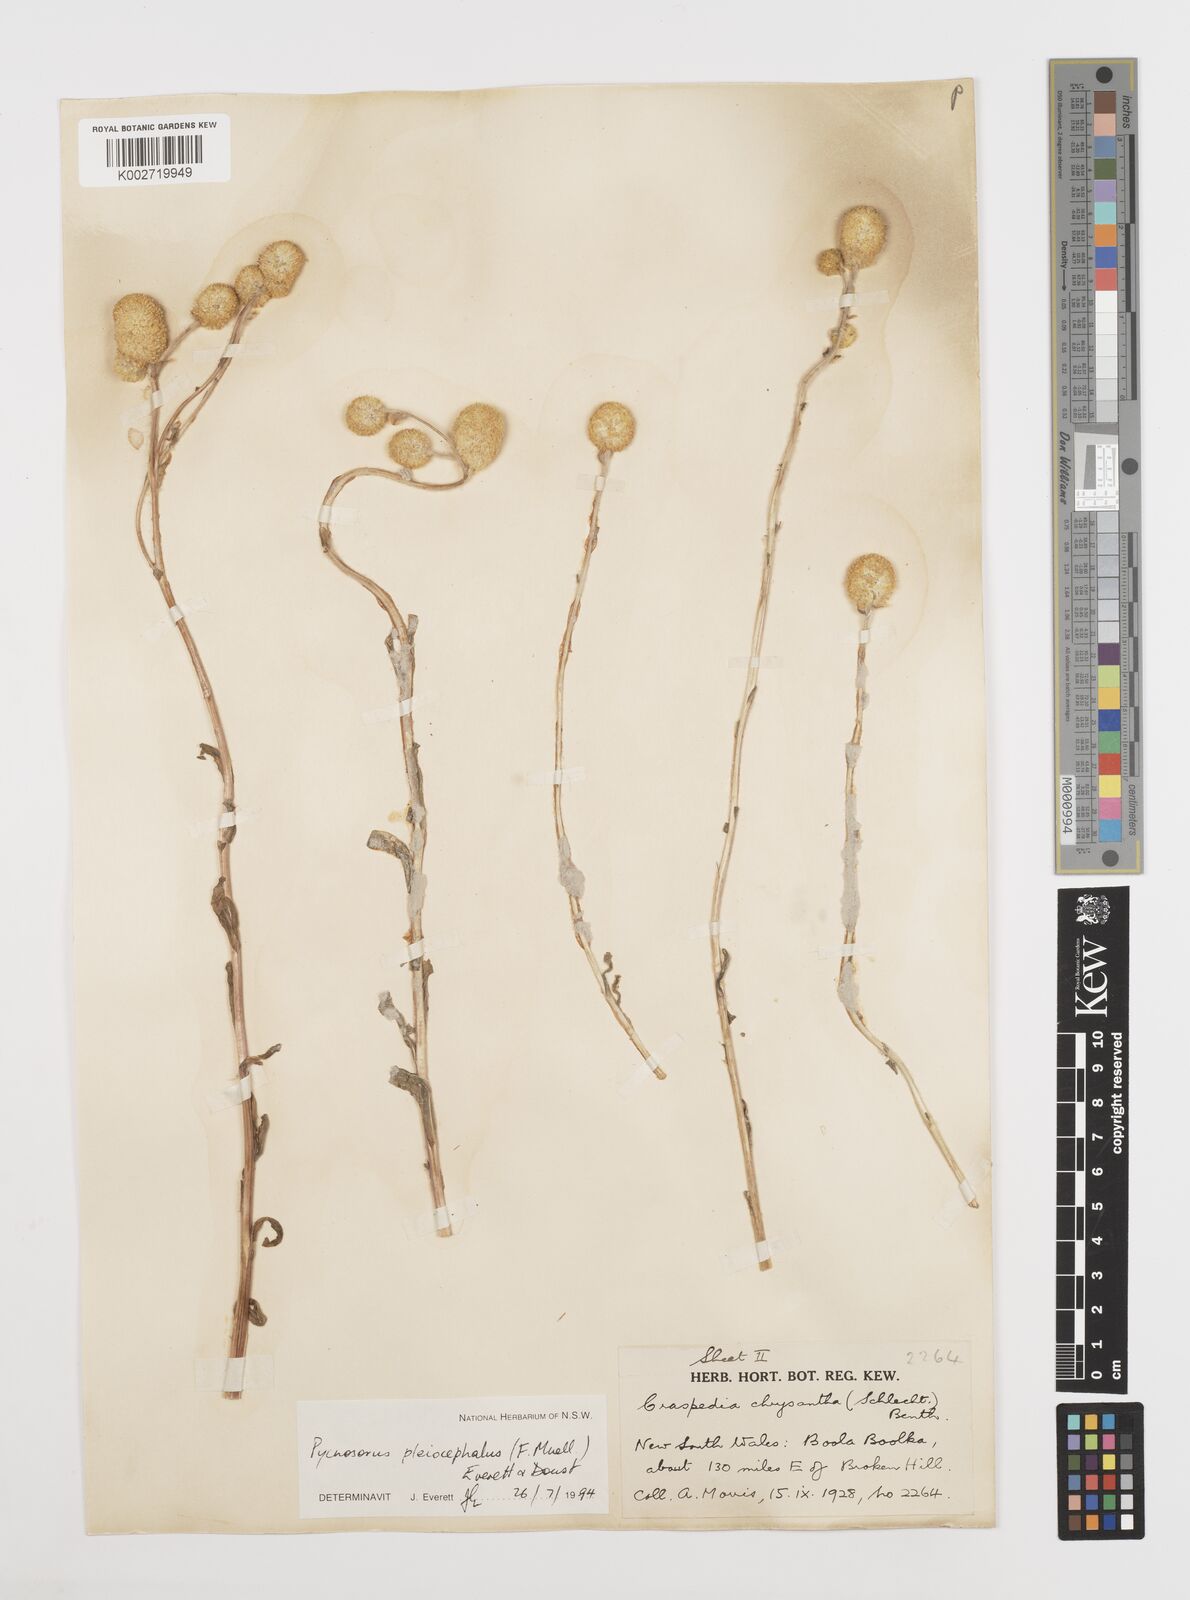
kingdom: Plantae
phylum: Tracheophyta
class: Magnoliopsida
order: Asterales
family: Asteraceae
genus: Pycnosorus
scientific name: Pycnosorus pleiocephalus
